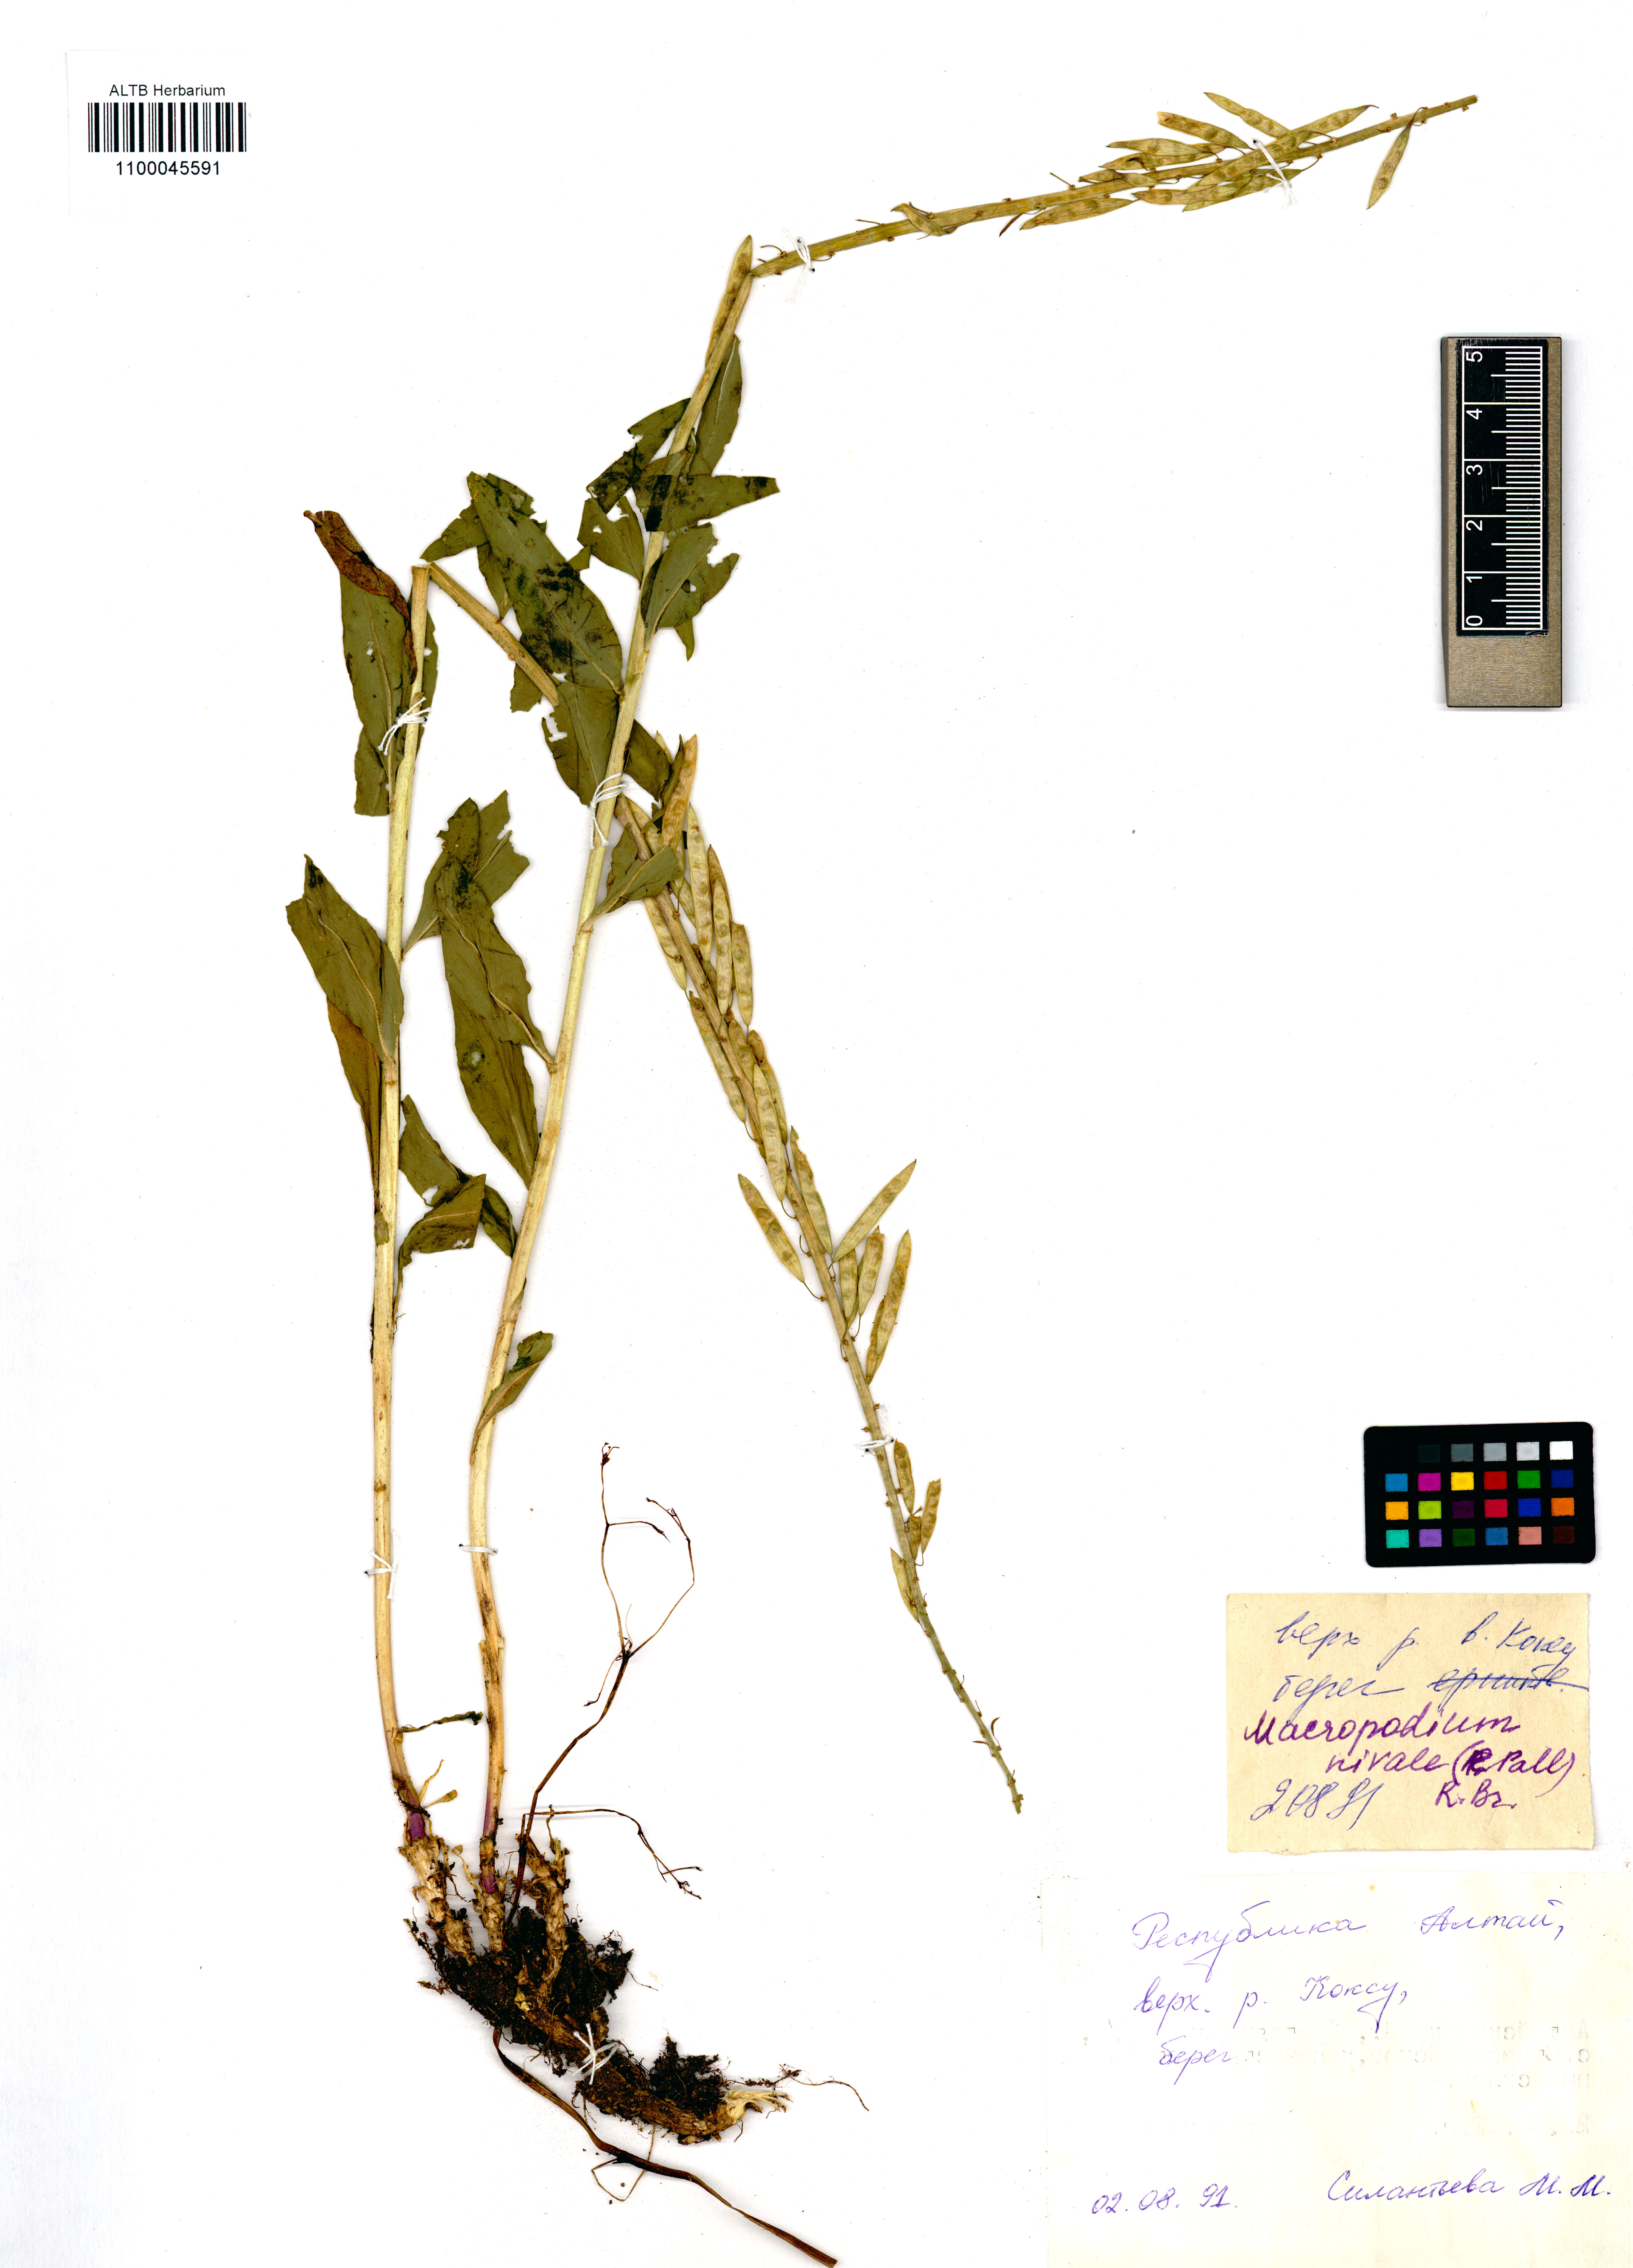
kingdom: Plantae
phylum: Tracheophyta
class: Magnoliopsida
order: Brassicales
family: Brassicaceae
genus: Macropodium
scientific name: Macropodium nivale
